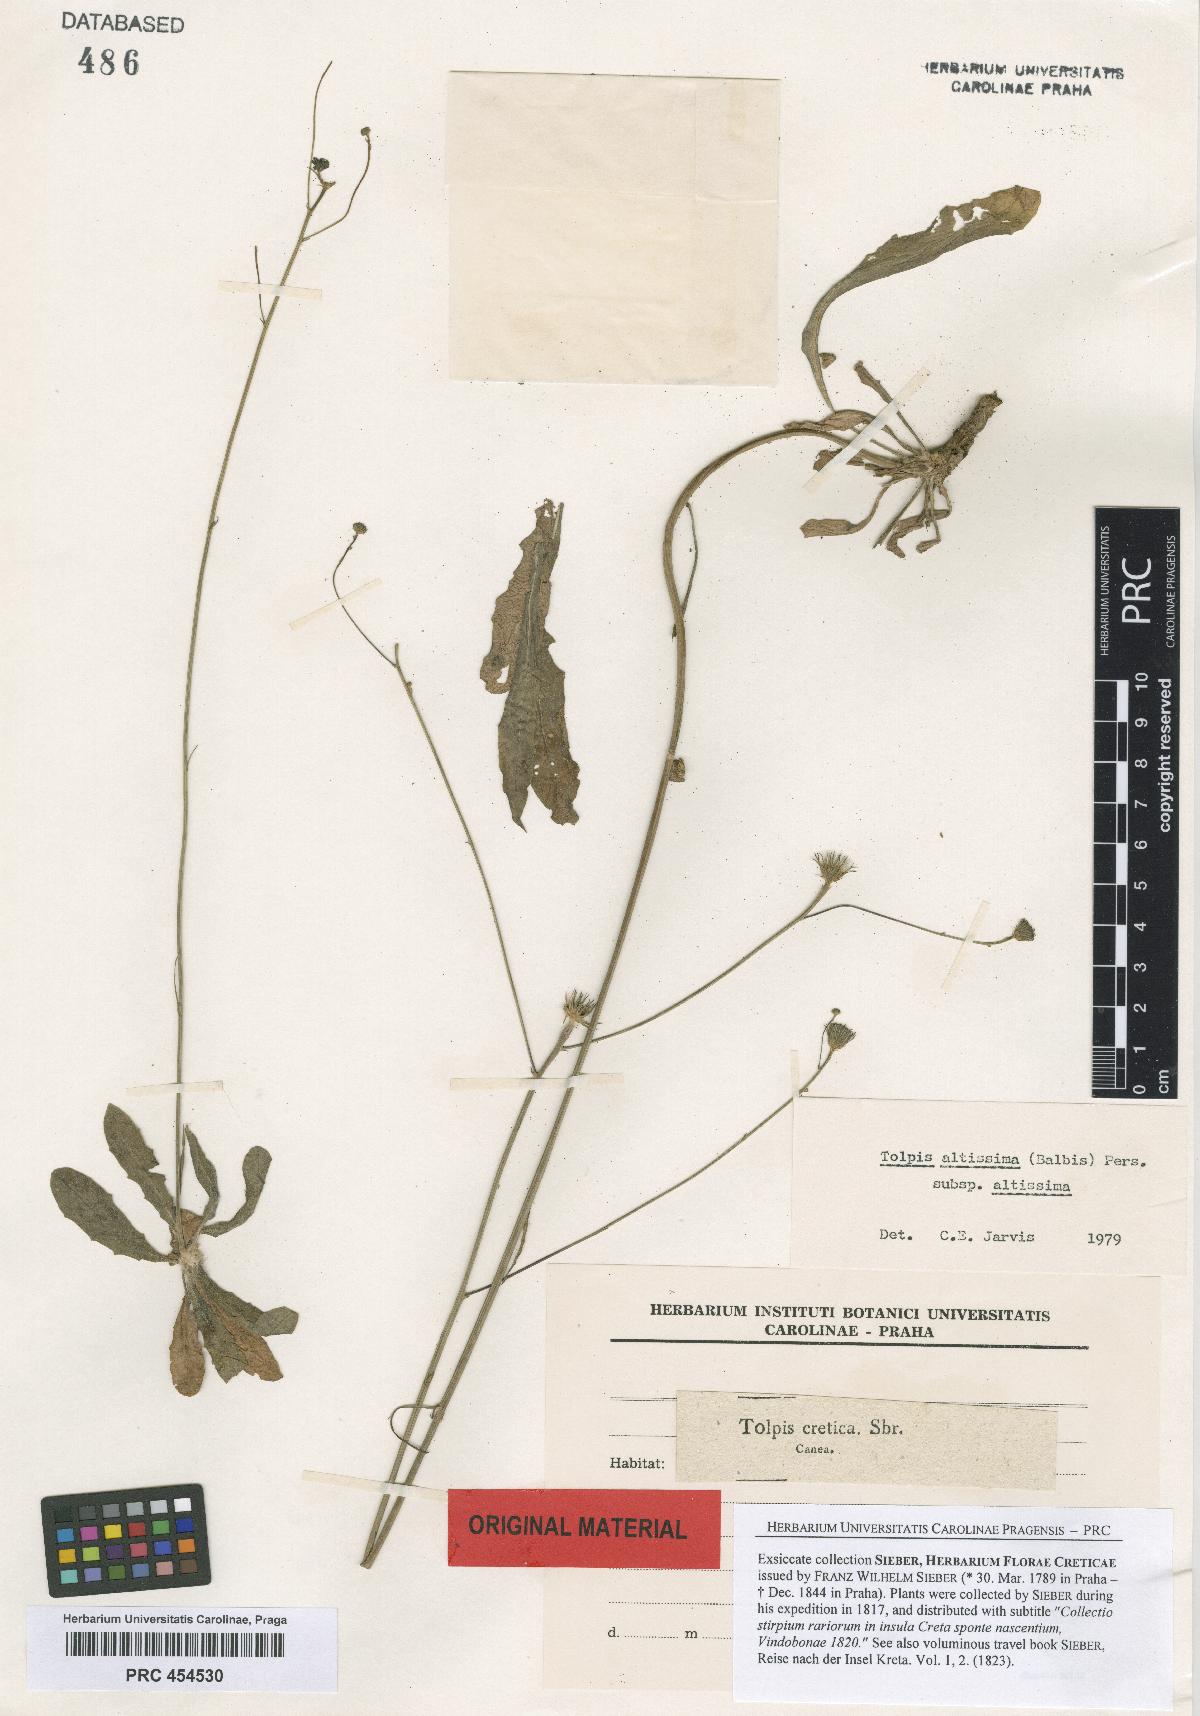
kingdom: Plantae
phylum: Tracheophyta
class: Magnoliopsida
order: Asterales
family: Asteraceae
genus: Tolpis
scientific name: Tolpis virgata
